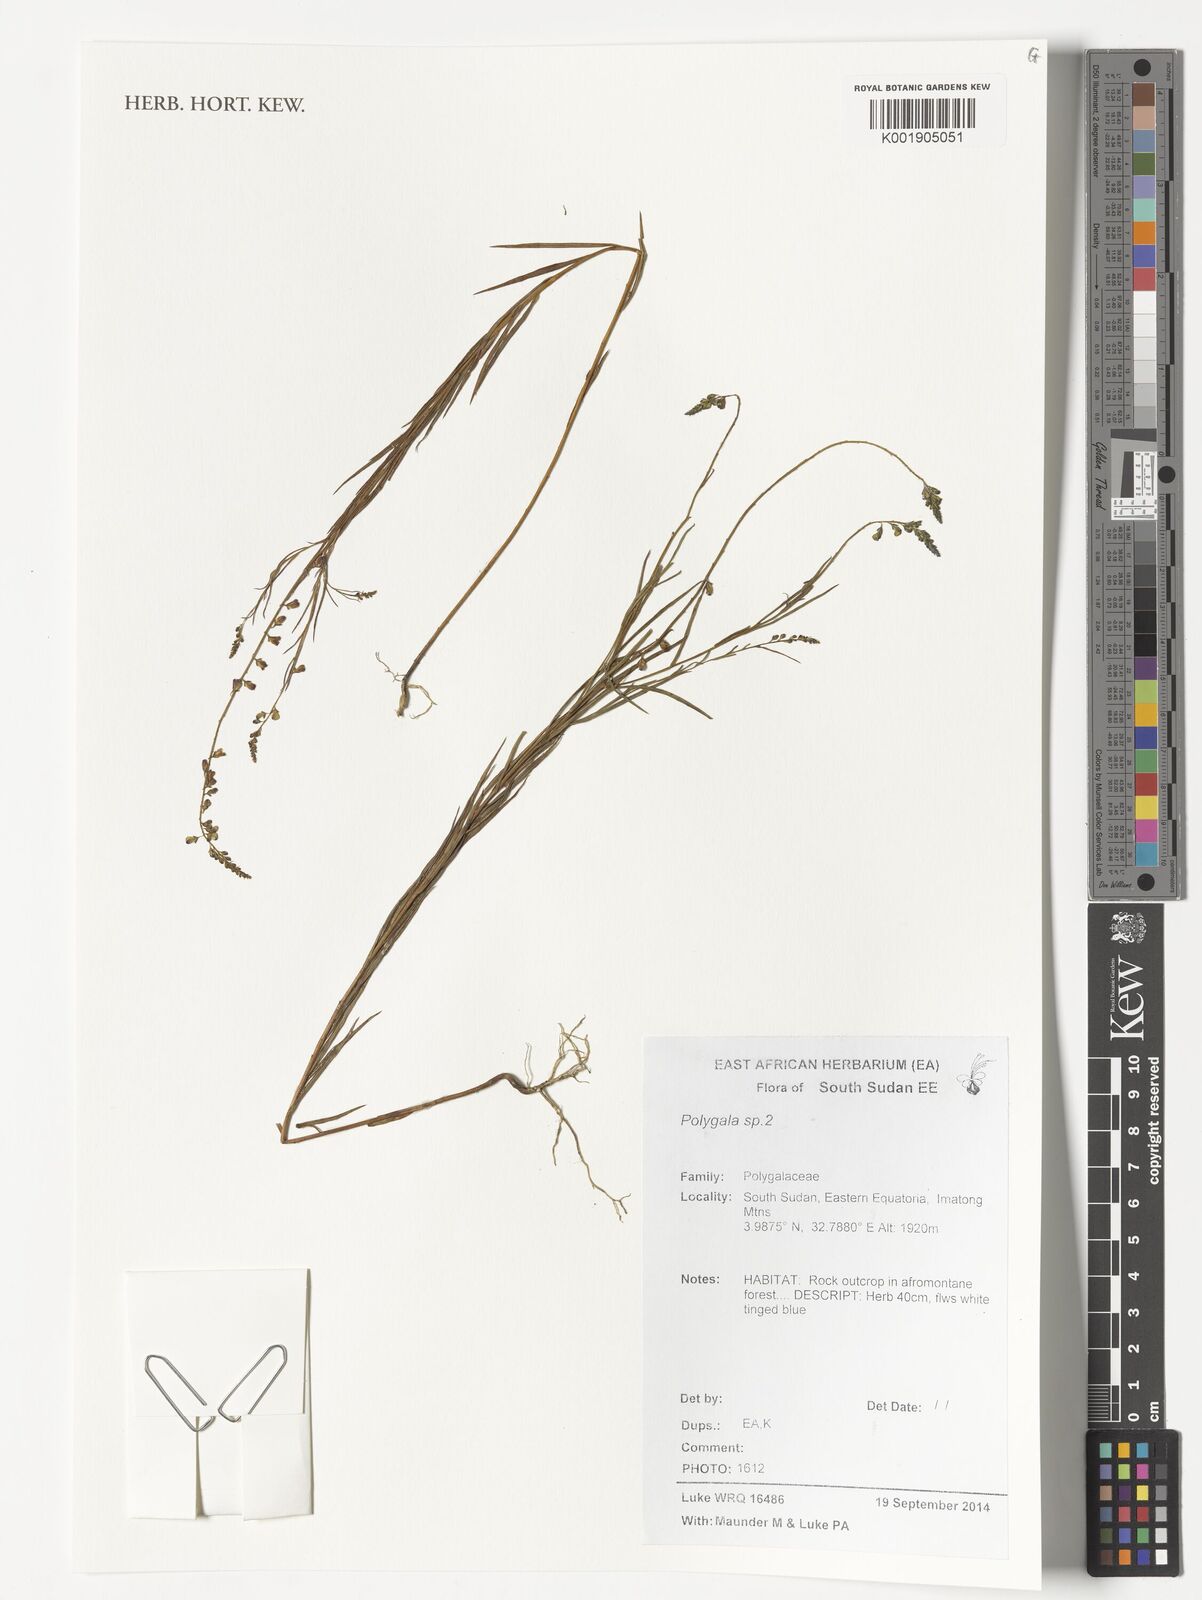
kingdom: Plantae
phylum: Tracheophyta
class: Magnoliopsida
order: Fabales
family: Polygalaceae
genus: Polygala
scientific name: Polygala
